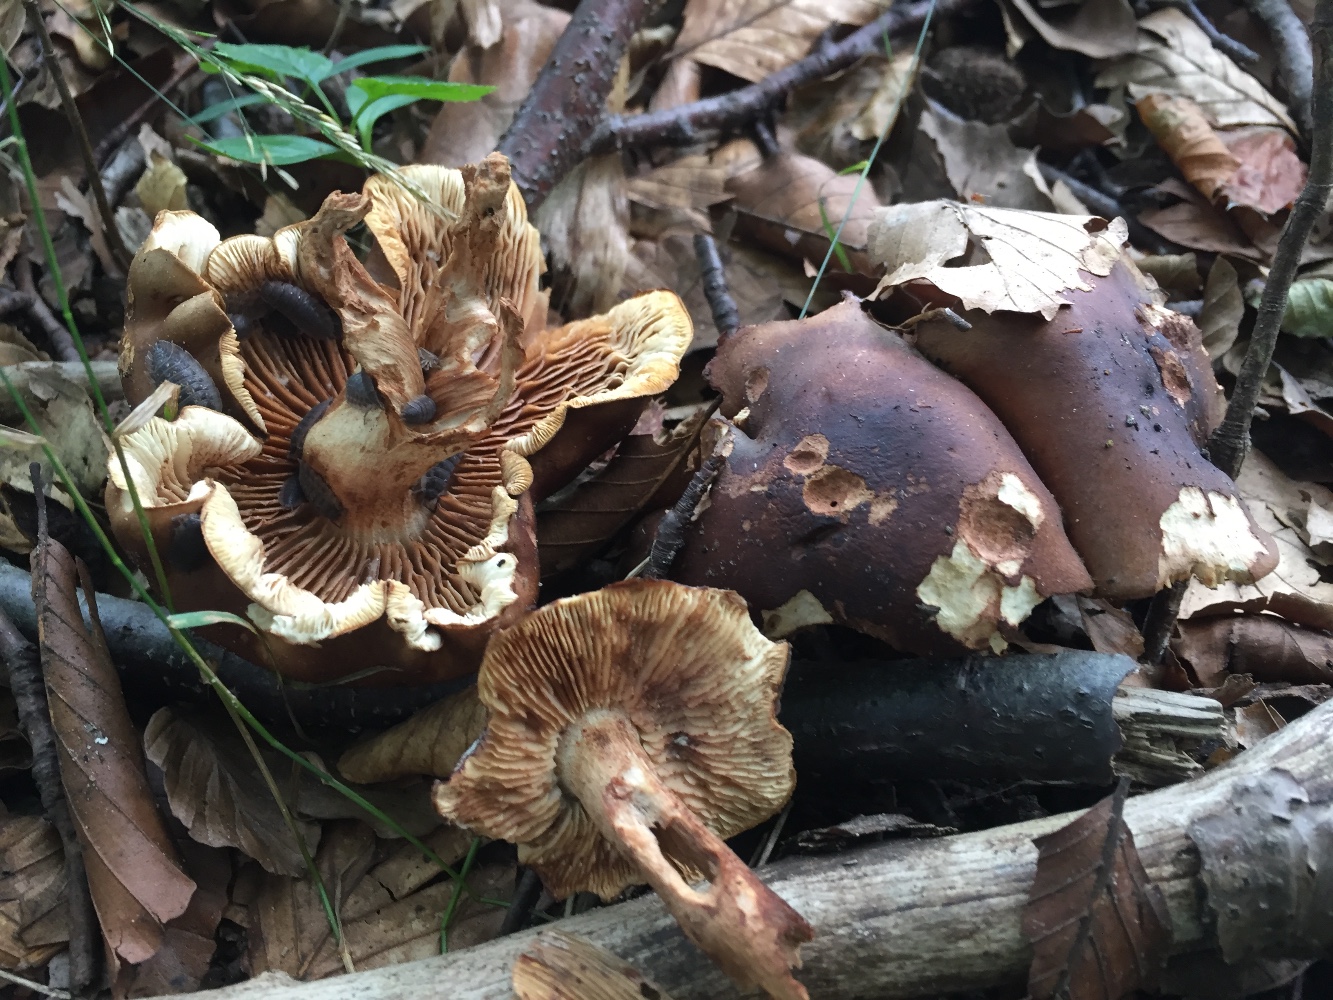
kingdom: Fungi
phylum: Basidiomycota
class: Agaricomycetes
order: Agaricales
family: Tricholomataceae
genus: Tricholoma
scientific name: Tricholoma ustale
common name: sveden ridderhat
